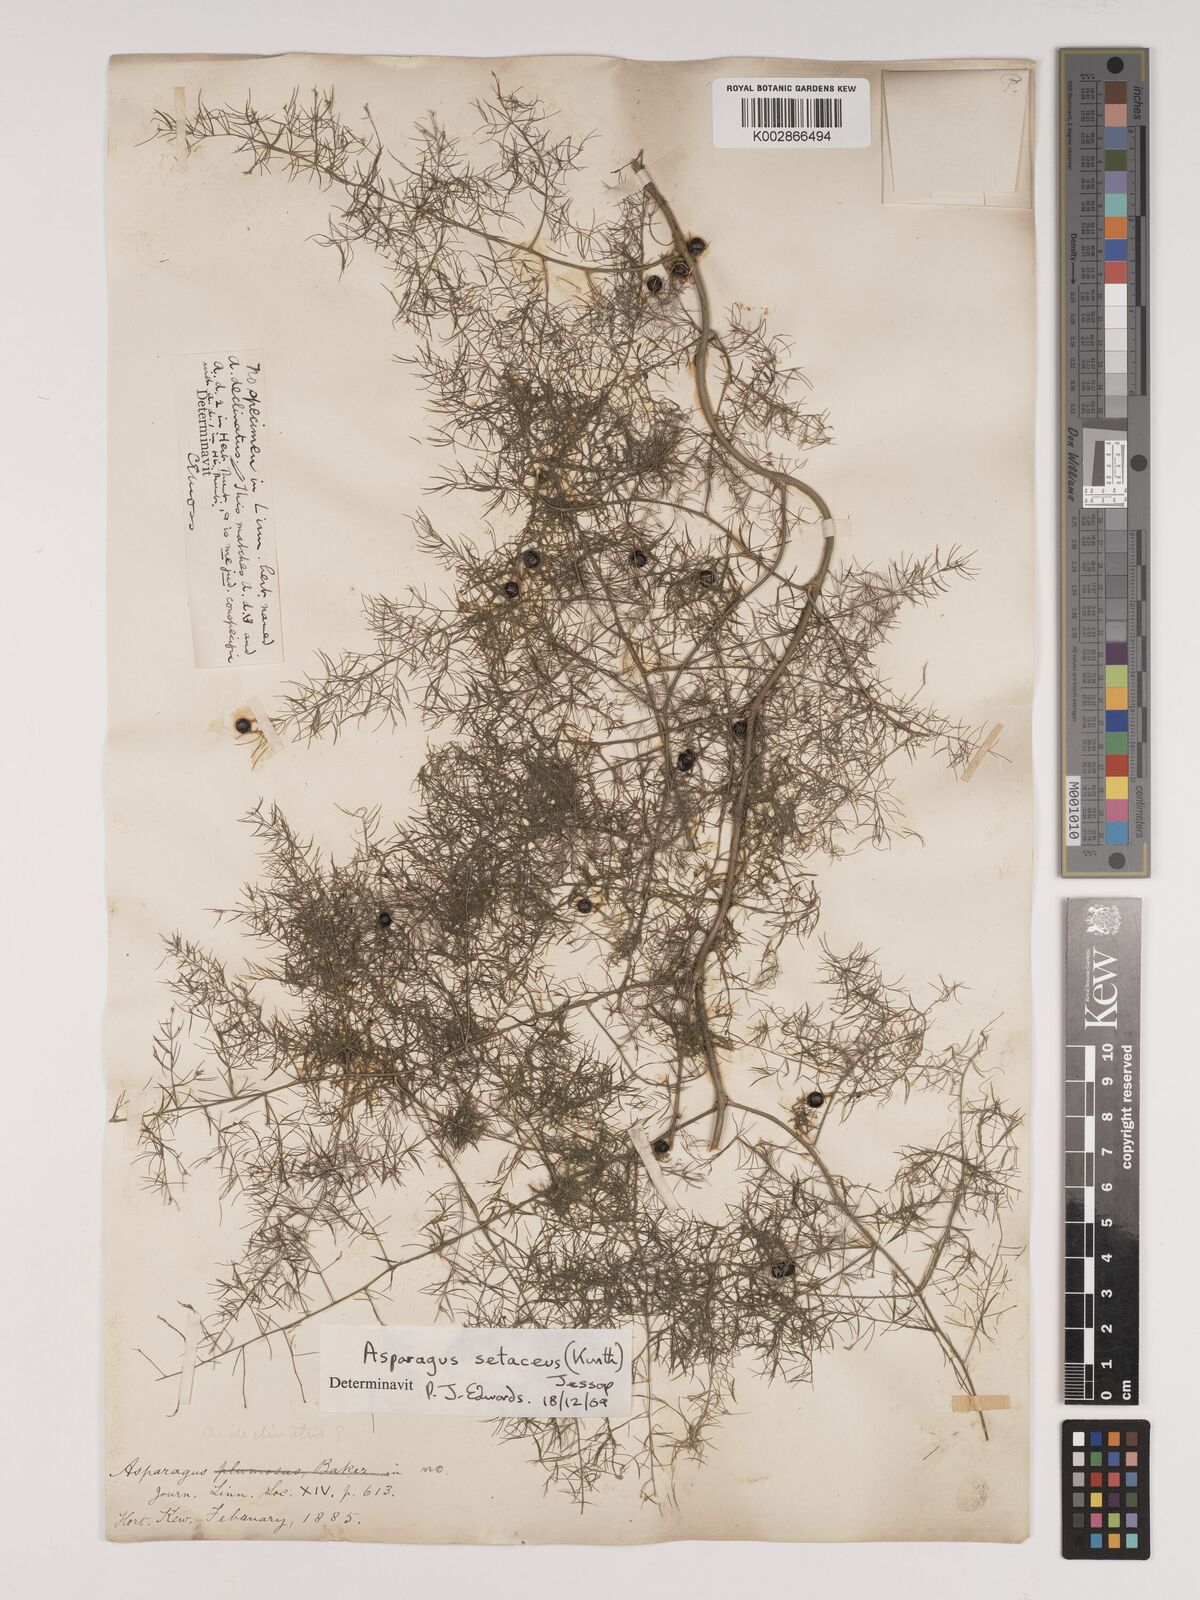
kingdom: Plantae
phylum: Tracheophyta
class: Liliopsida
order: Asparagales
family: Asparagaceae
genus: Asparagus
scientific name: Asparagus setaceus
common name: Common asparagus fern
